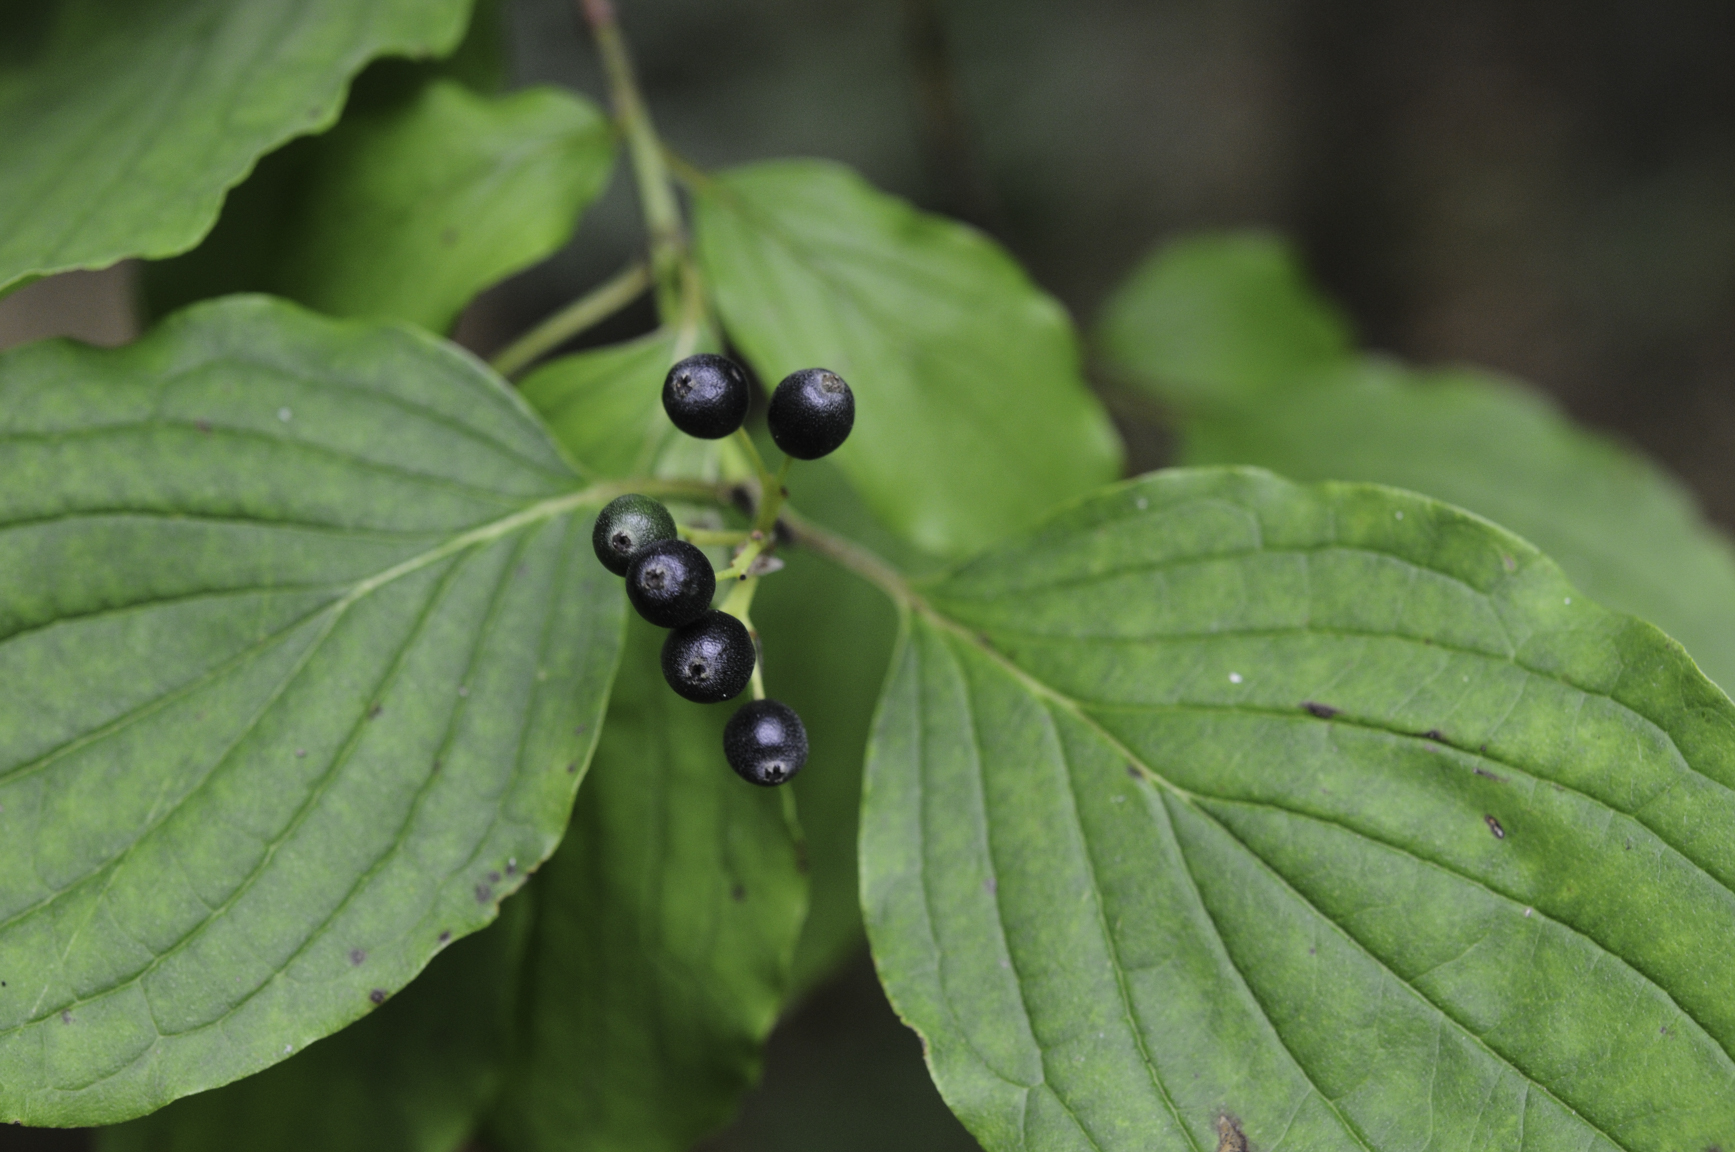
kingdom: Plantae
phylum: Tracheophyta
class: Magnoliopsida
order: Cornales
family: Cornaceae
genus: Cornus
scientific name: Cornus sanguinea
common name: Dogwood
